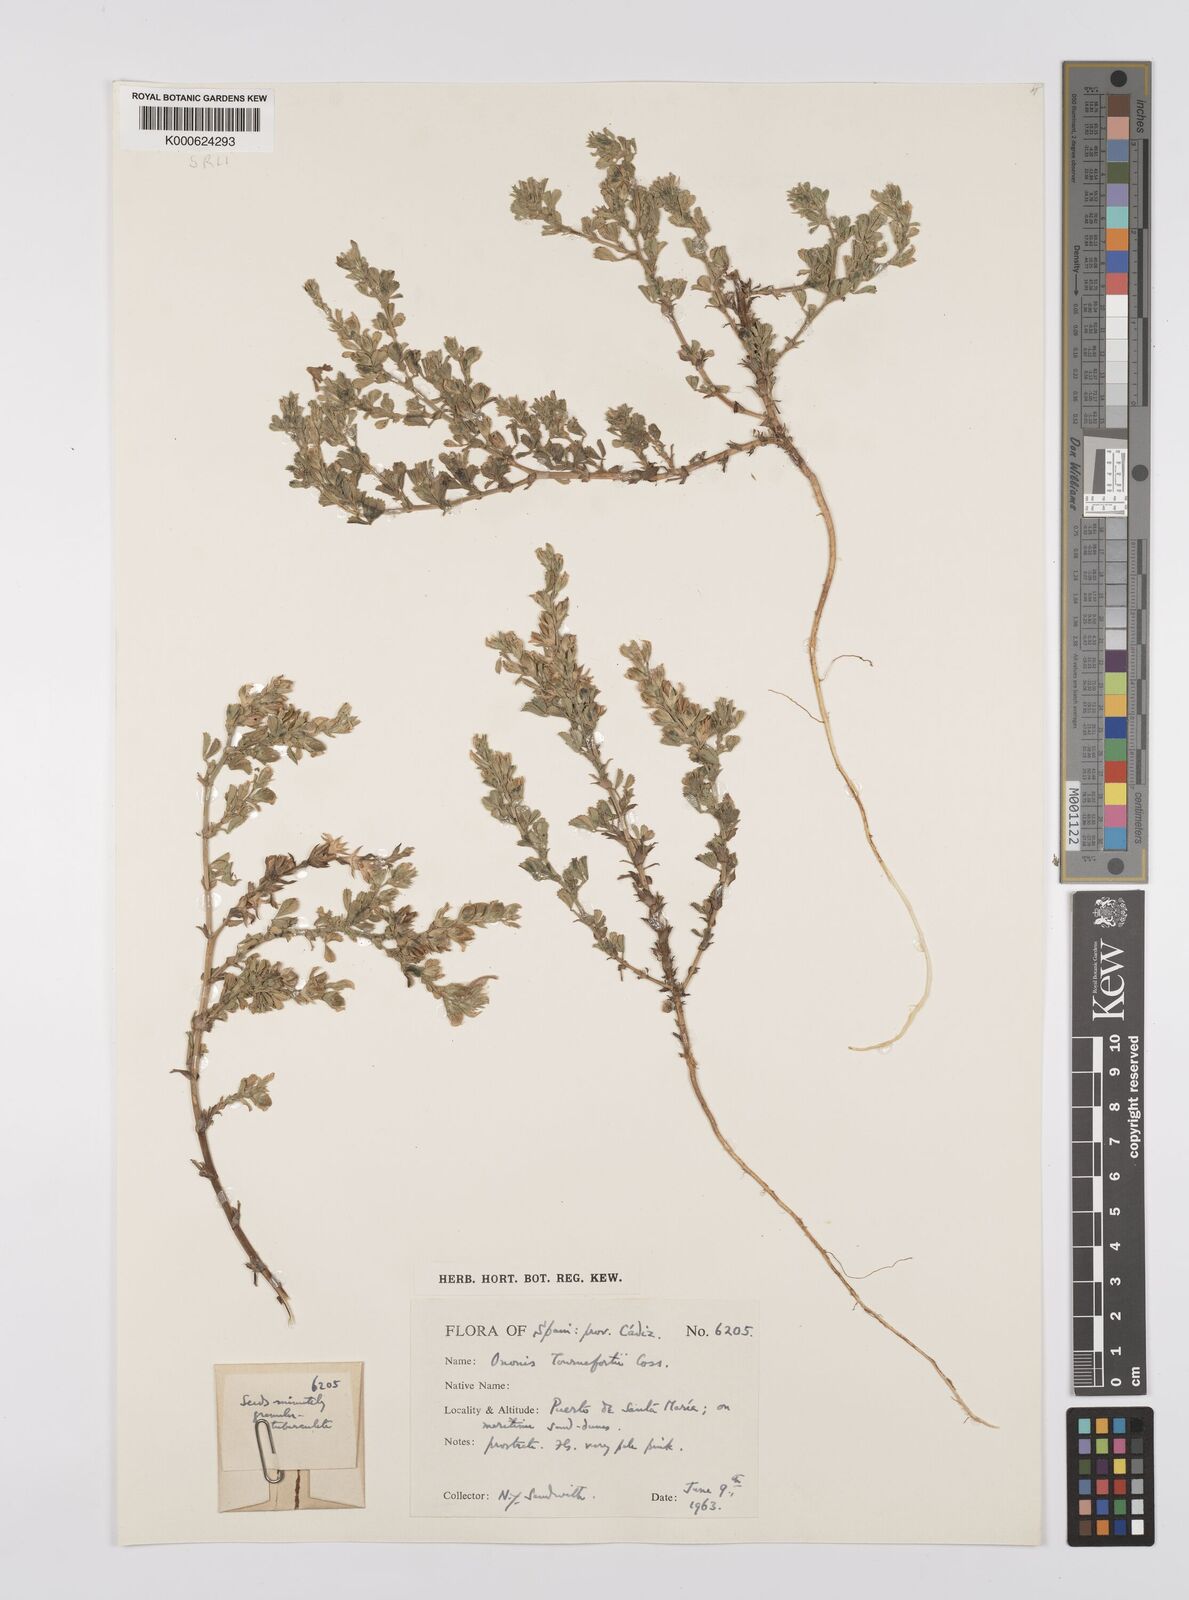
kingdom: Plantae
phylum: Tracheophyta
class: Magnoliopsida
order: Fabales
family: Fabaceae
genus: Ononis
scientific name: Ononis tournefortii
